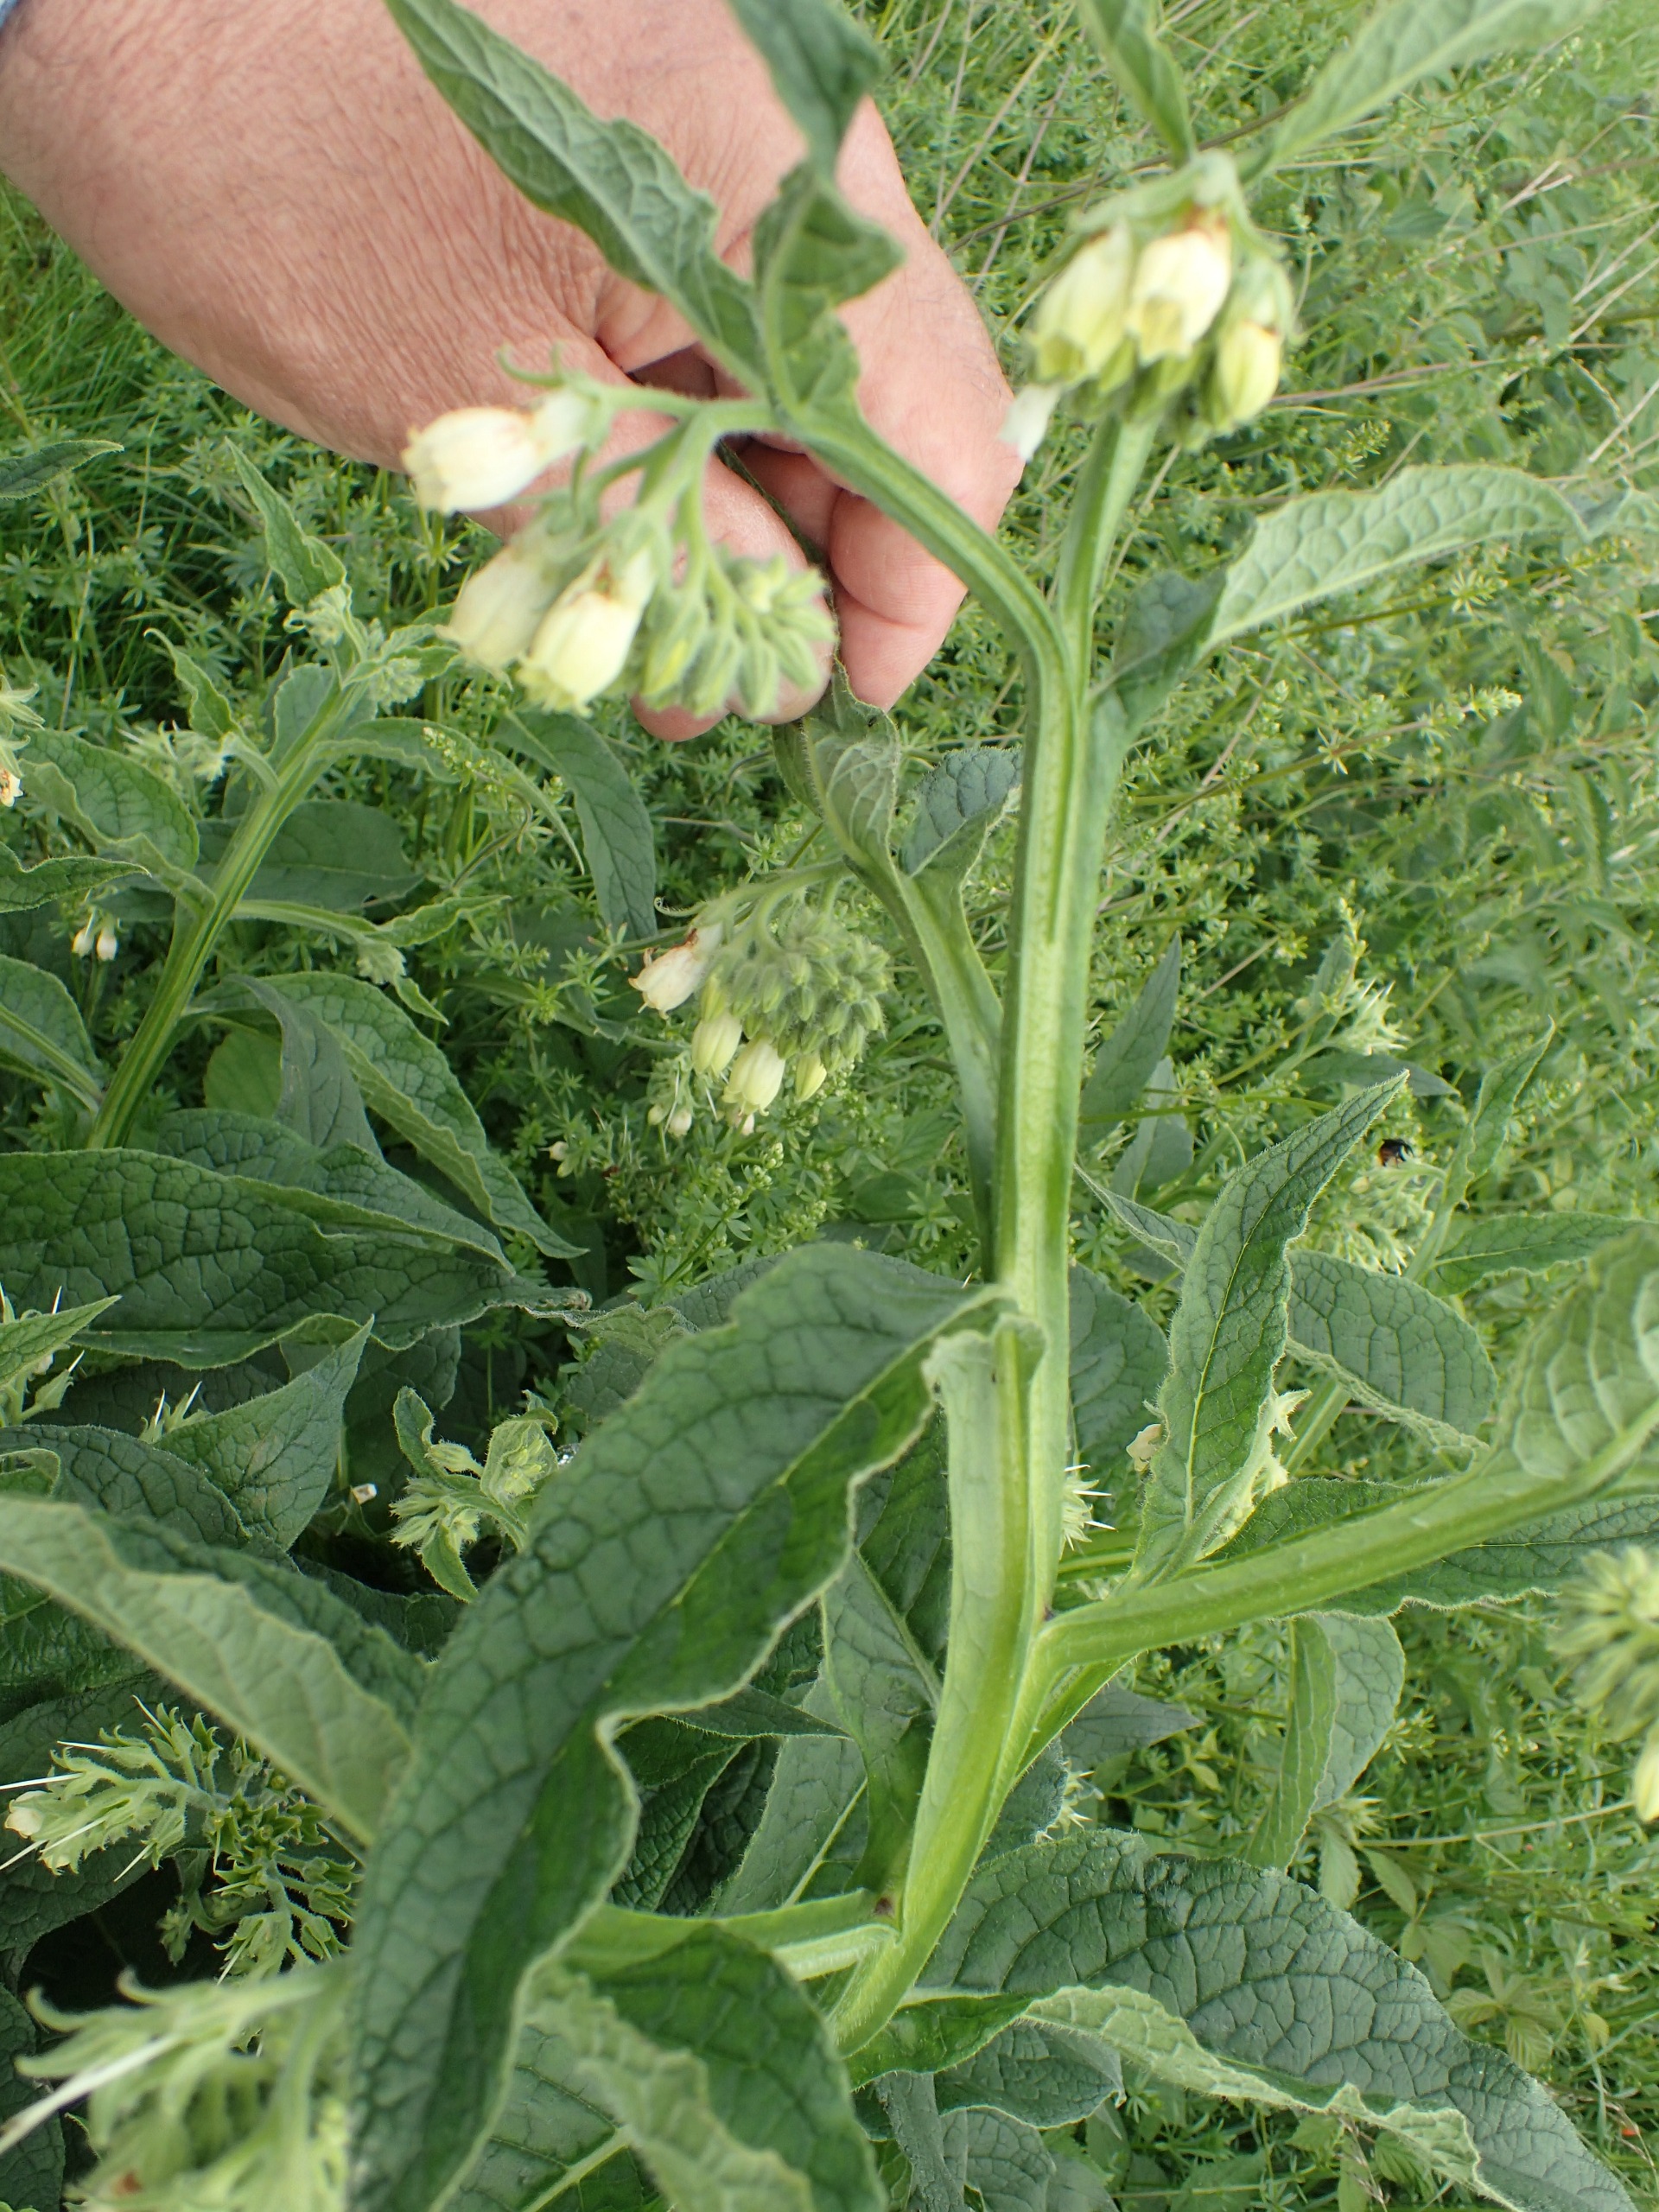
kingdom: Plantae
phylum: Tracheophyta
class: Magnoliopsida
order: Boraginales
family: Boraginaceae
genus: Symphytum
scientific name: Symphytum officinale
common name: Læge-kulsukker
